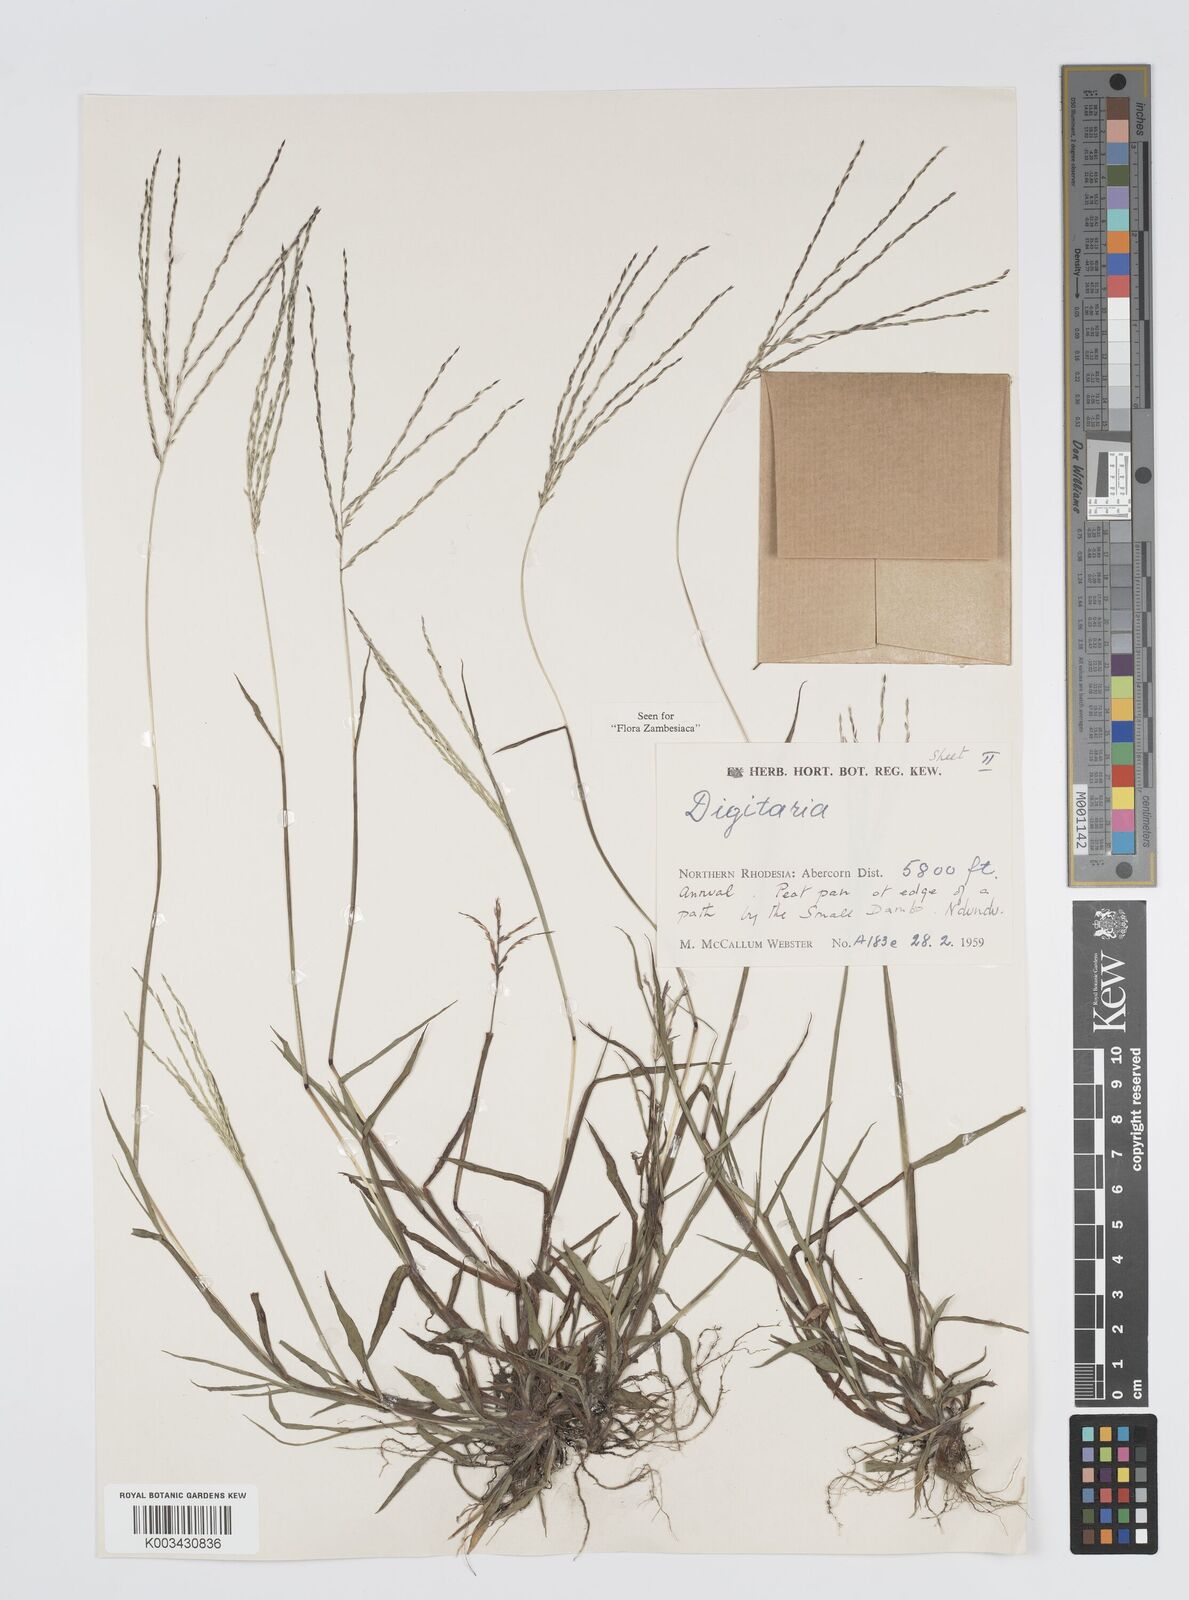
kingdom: Plantae
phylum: Tracheophyta
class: Liliopsida
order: Poales
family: Poaceae
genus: Digitaria
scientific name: Digitaria debilis
